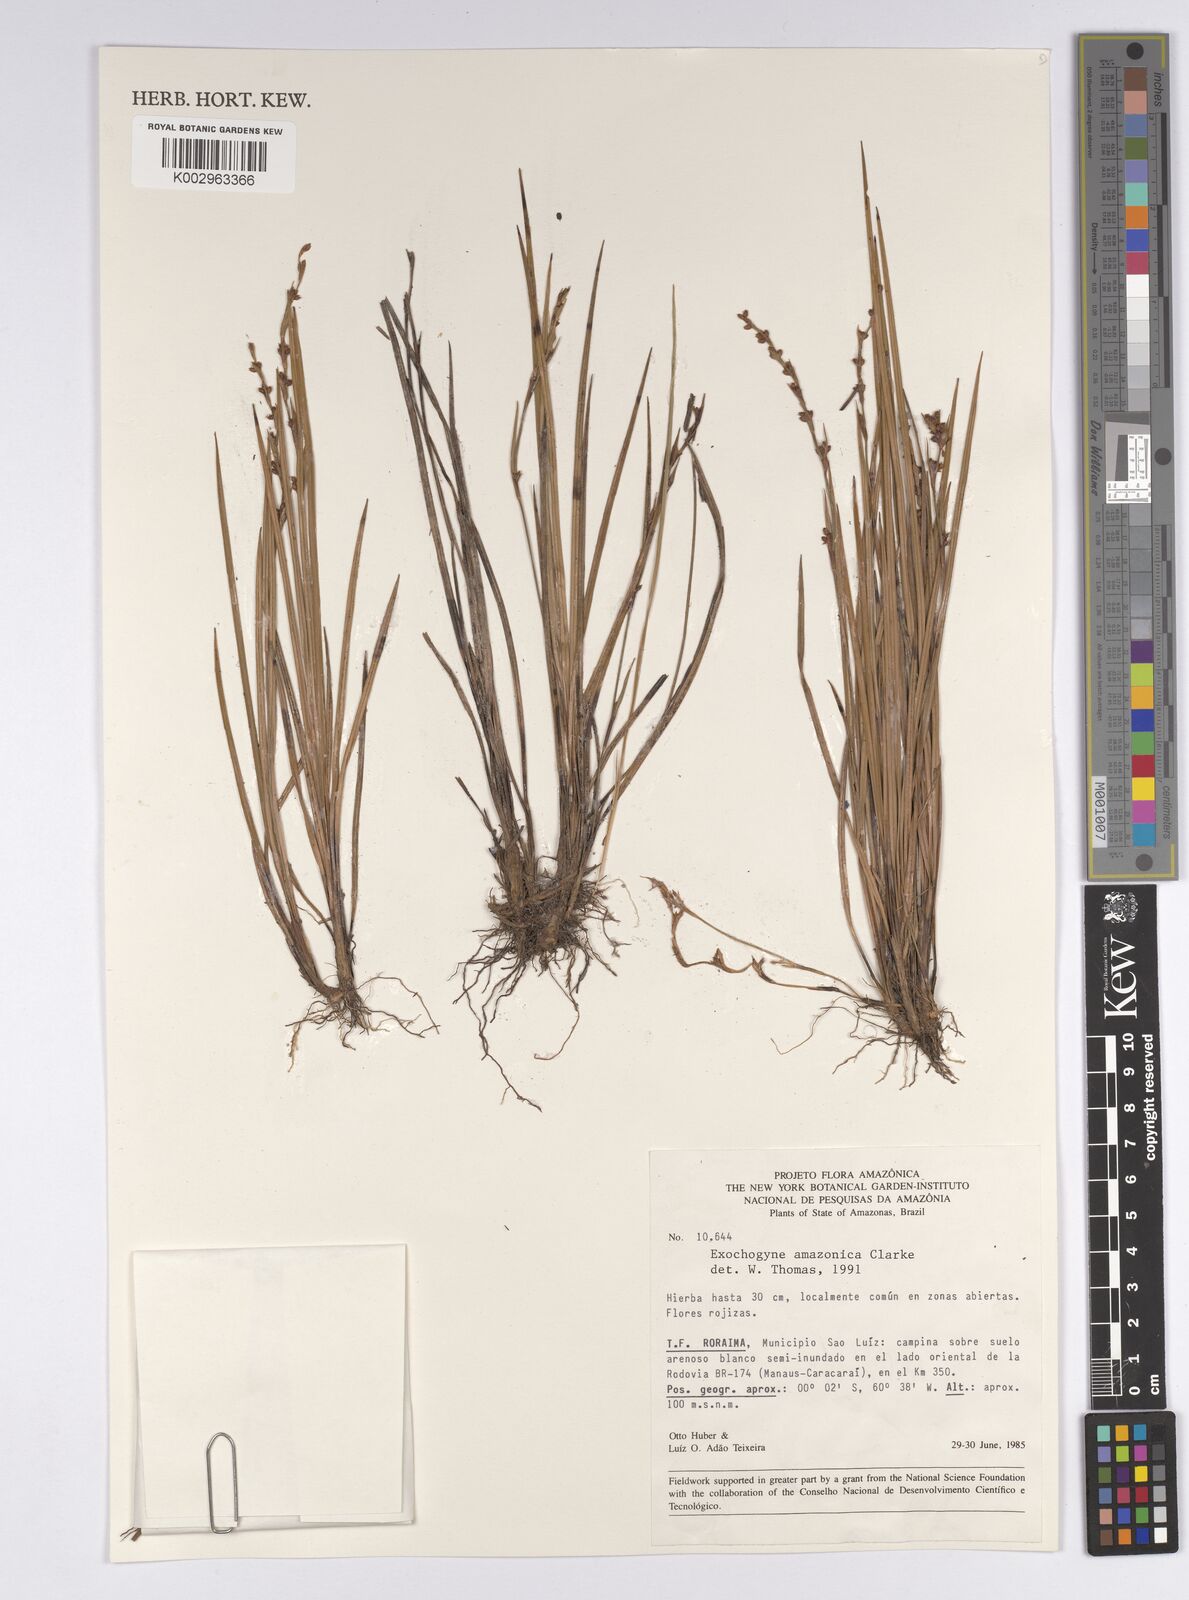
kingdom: Plantae
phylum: Tracheophyta
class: Liliopsida
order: Poales
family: Cyperaceae
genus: Exochogyne
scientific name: Exochogyne amazonica
